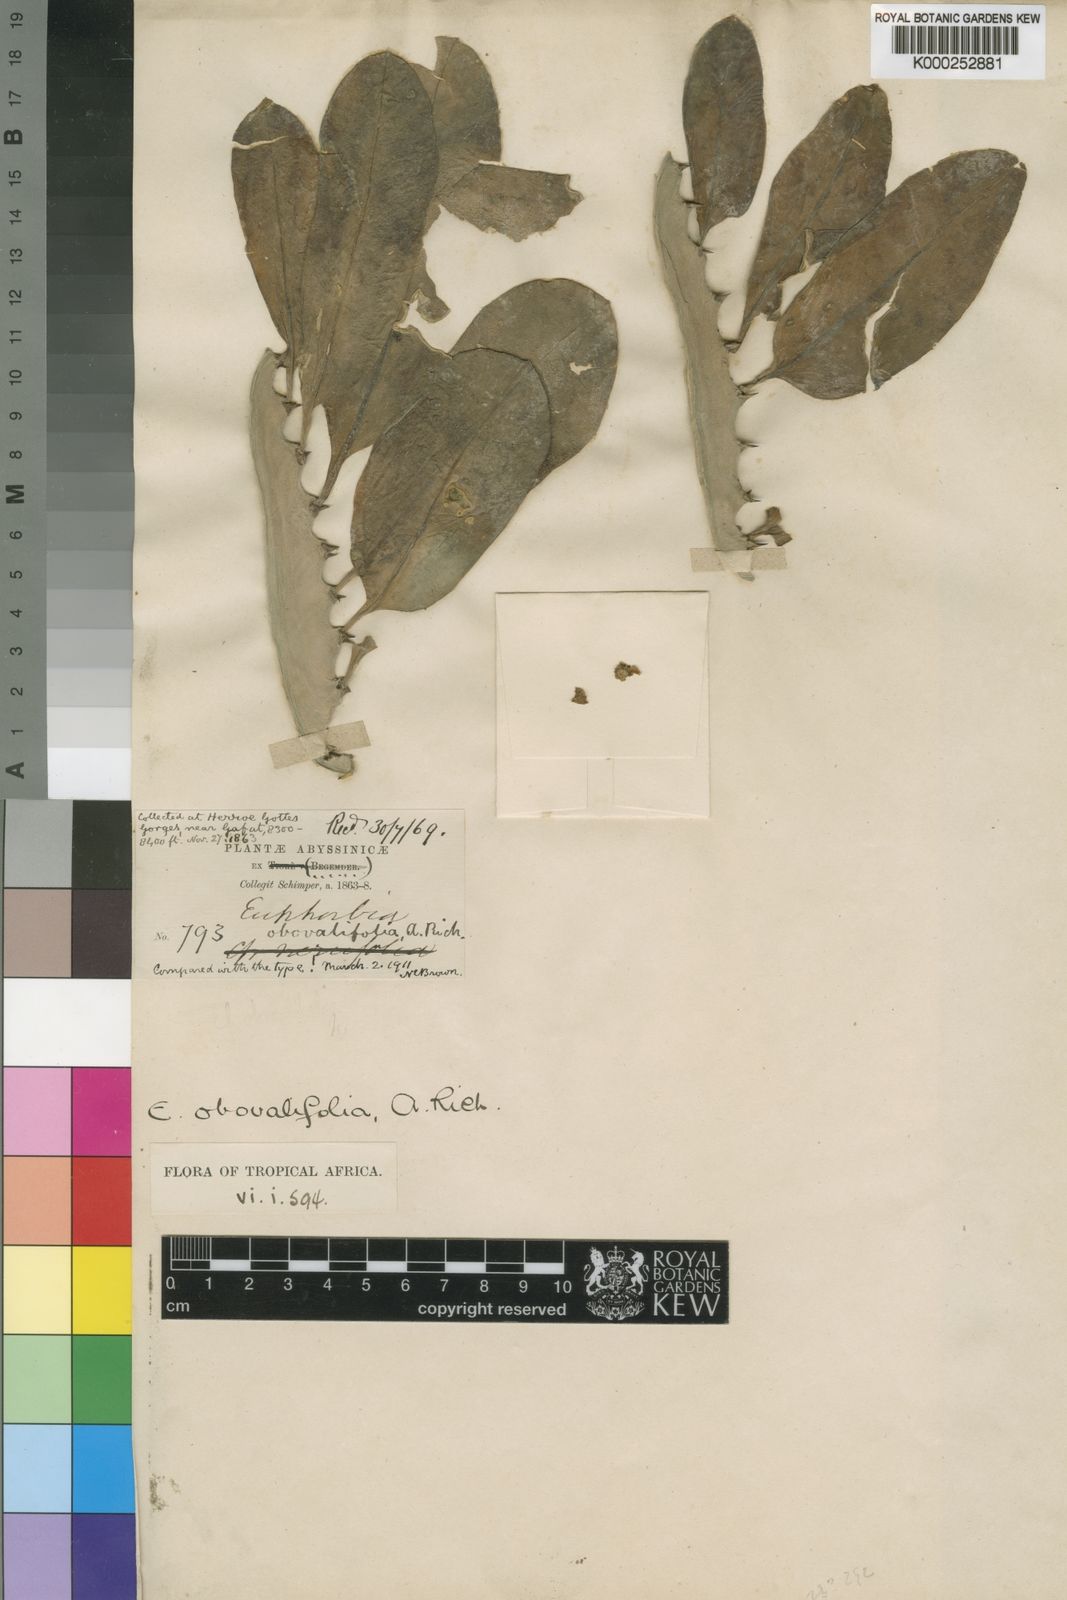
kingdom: Plantae
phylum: Tracheophyta
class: Magnoliopsida
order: Malpighiales
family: Euphorbiaceae
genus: Euphorbia
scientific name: Euphorbia abyssinica
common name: Abyssinian spurge
